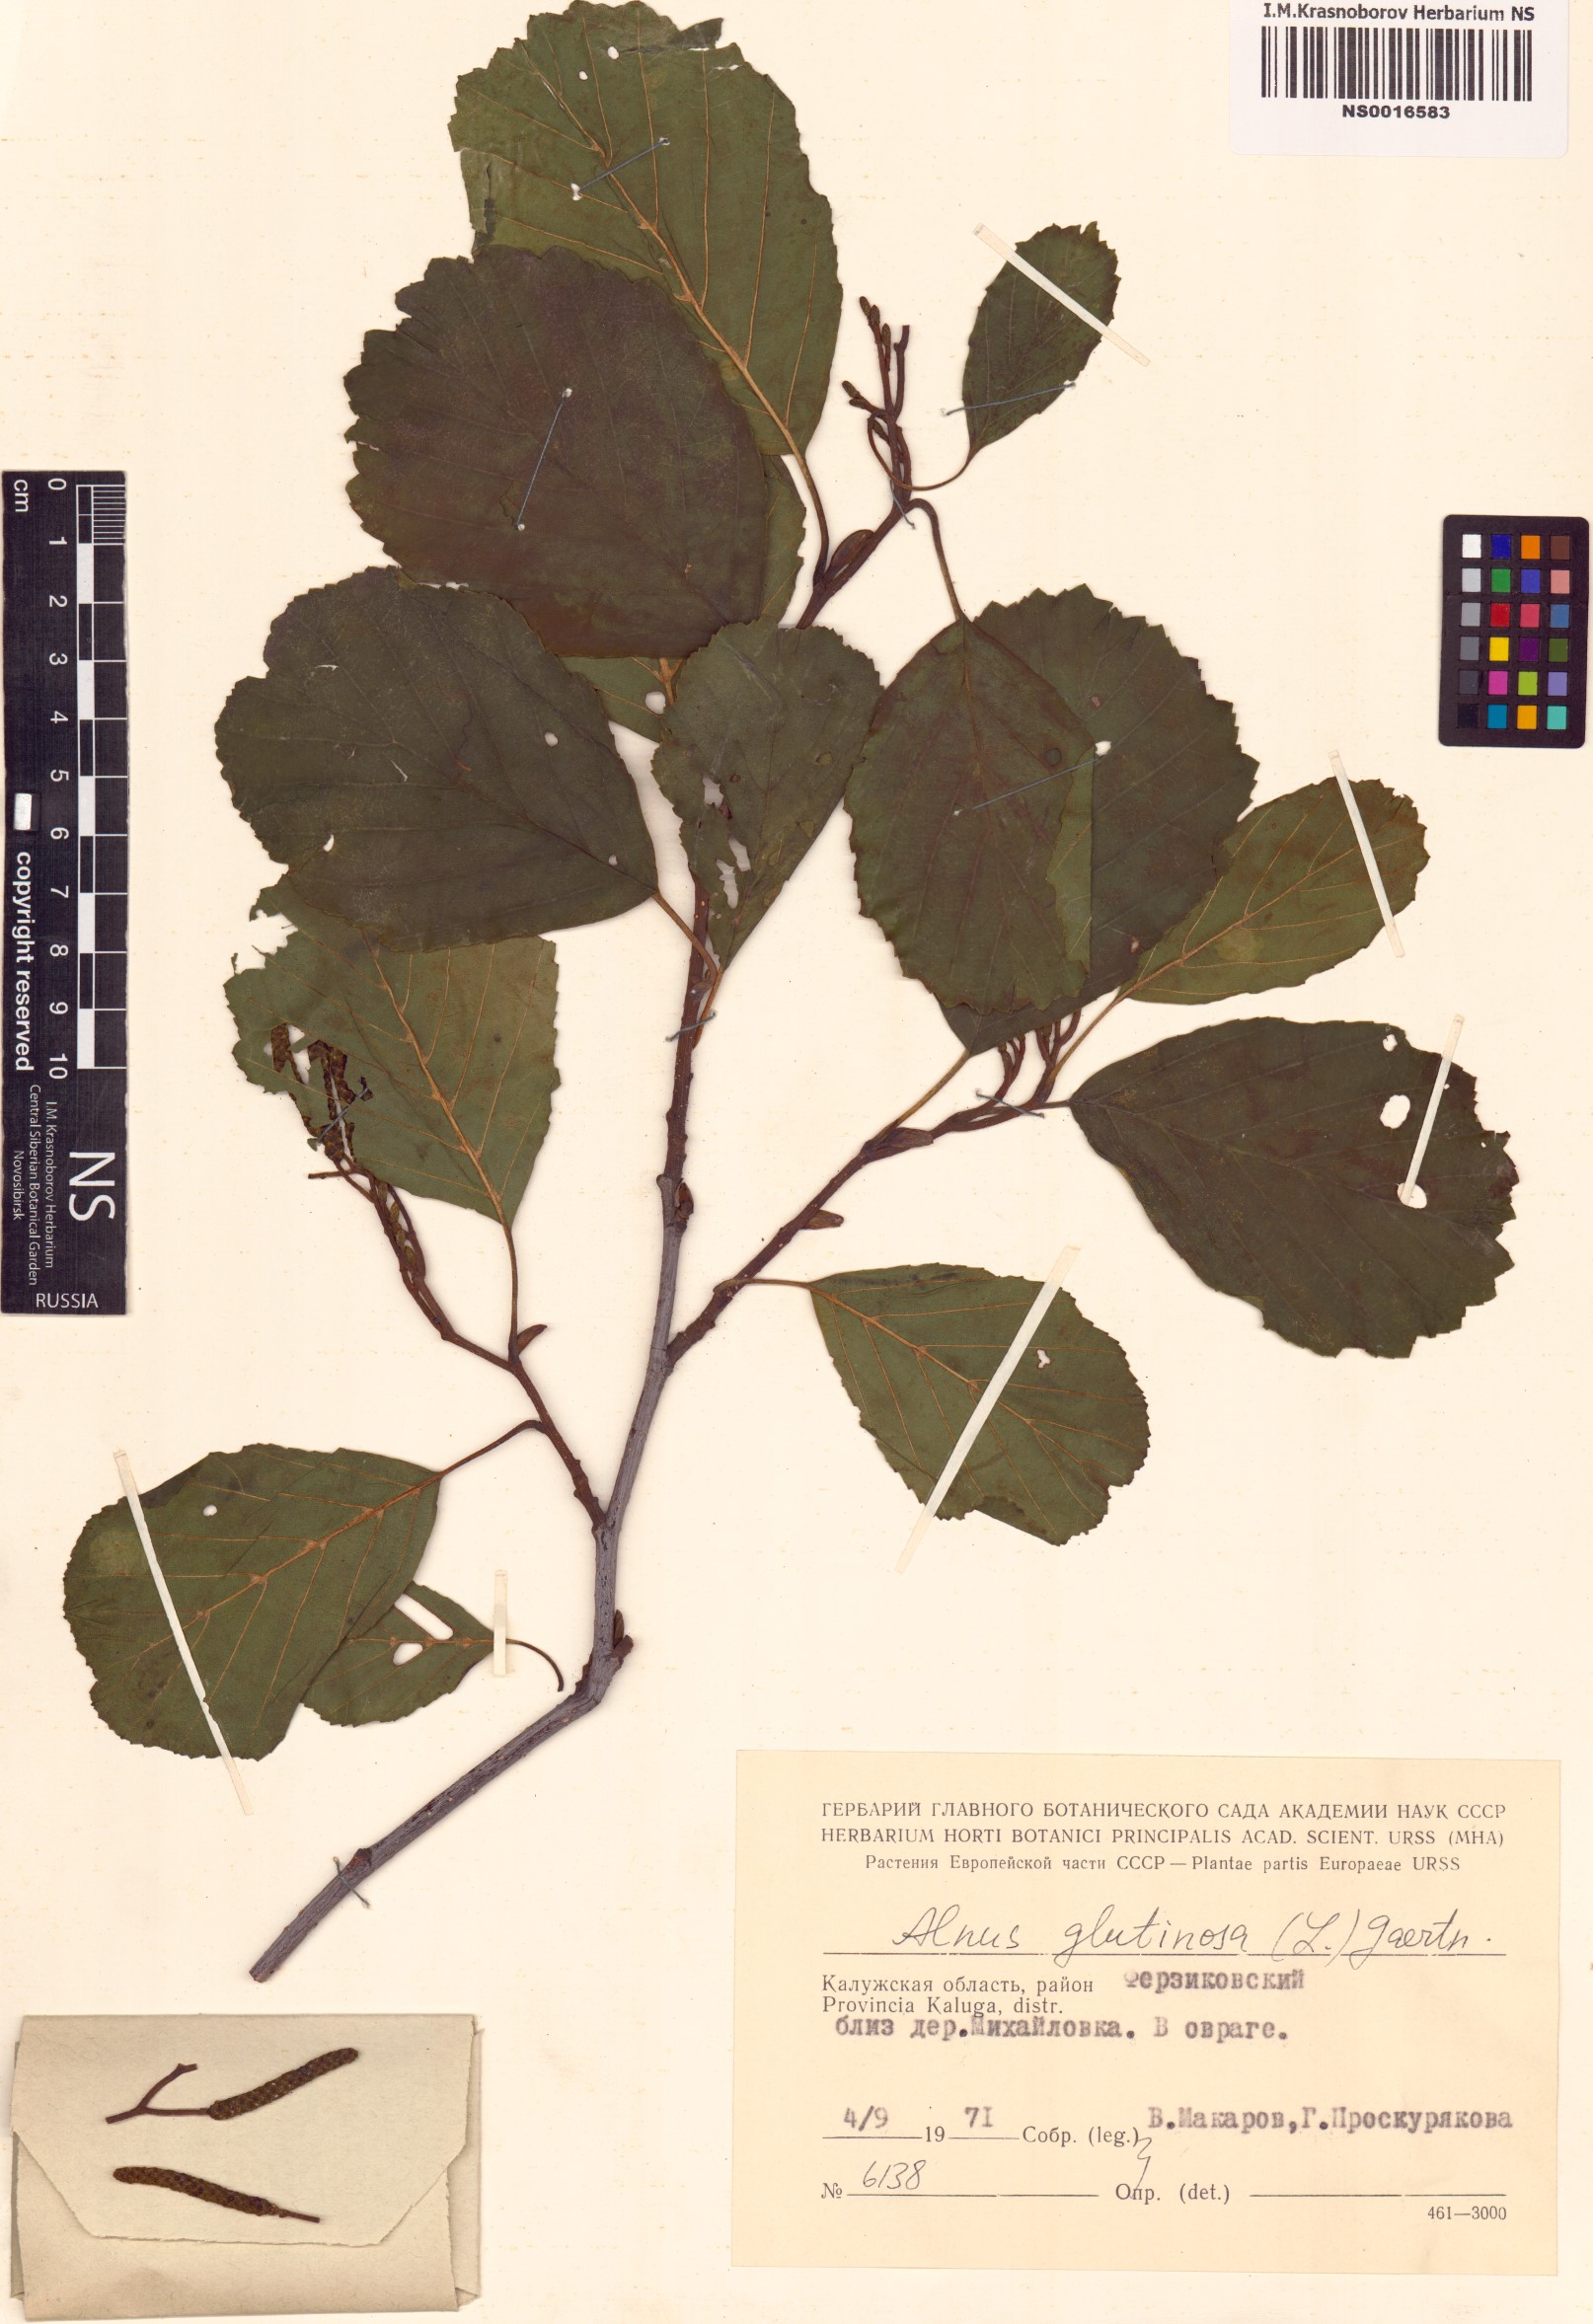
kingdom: Plantae
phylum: Tracheophyta
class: Magnoliopsida
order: Fagales
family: Betulaceae
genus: Alnus
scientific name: Alnus glutinosa
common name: Black alder
